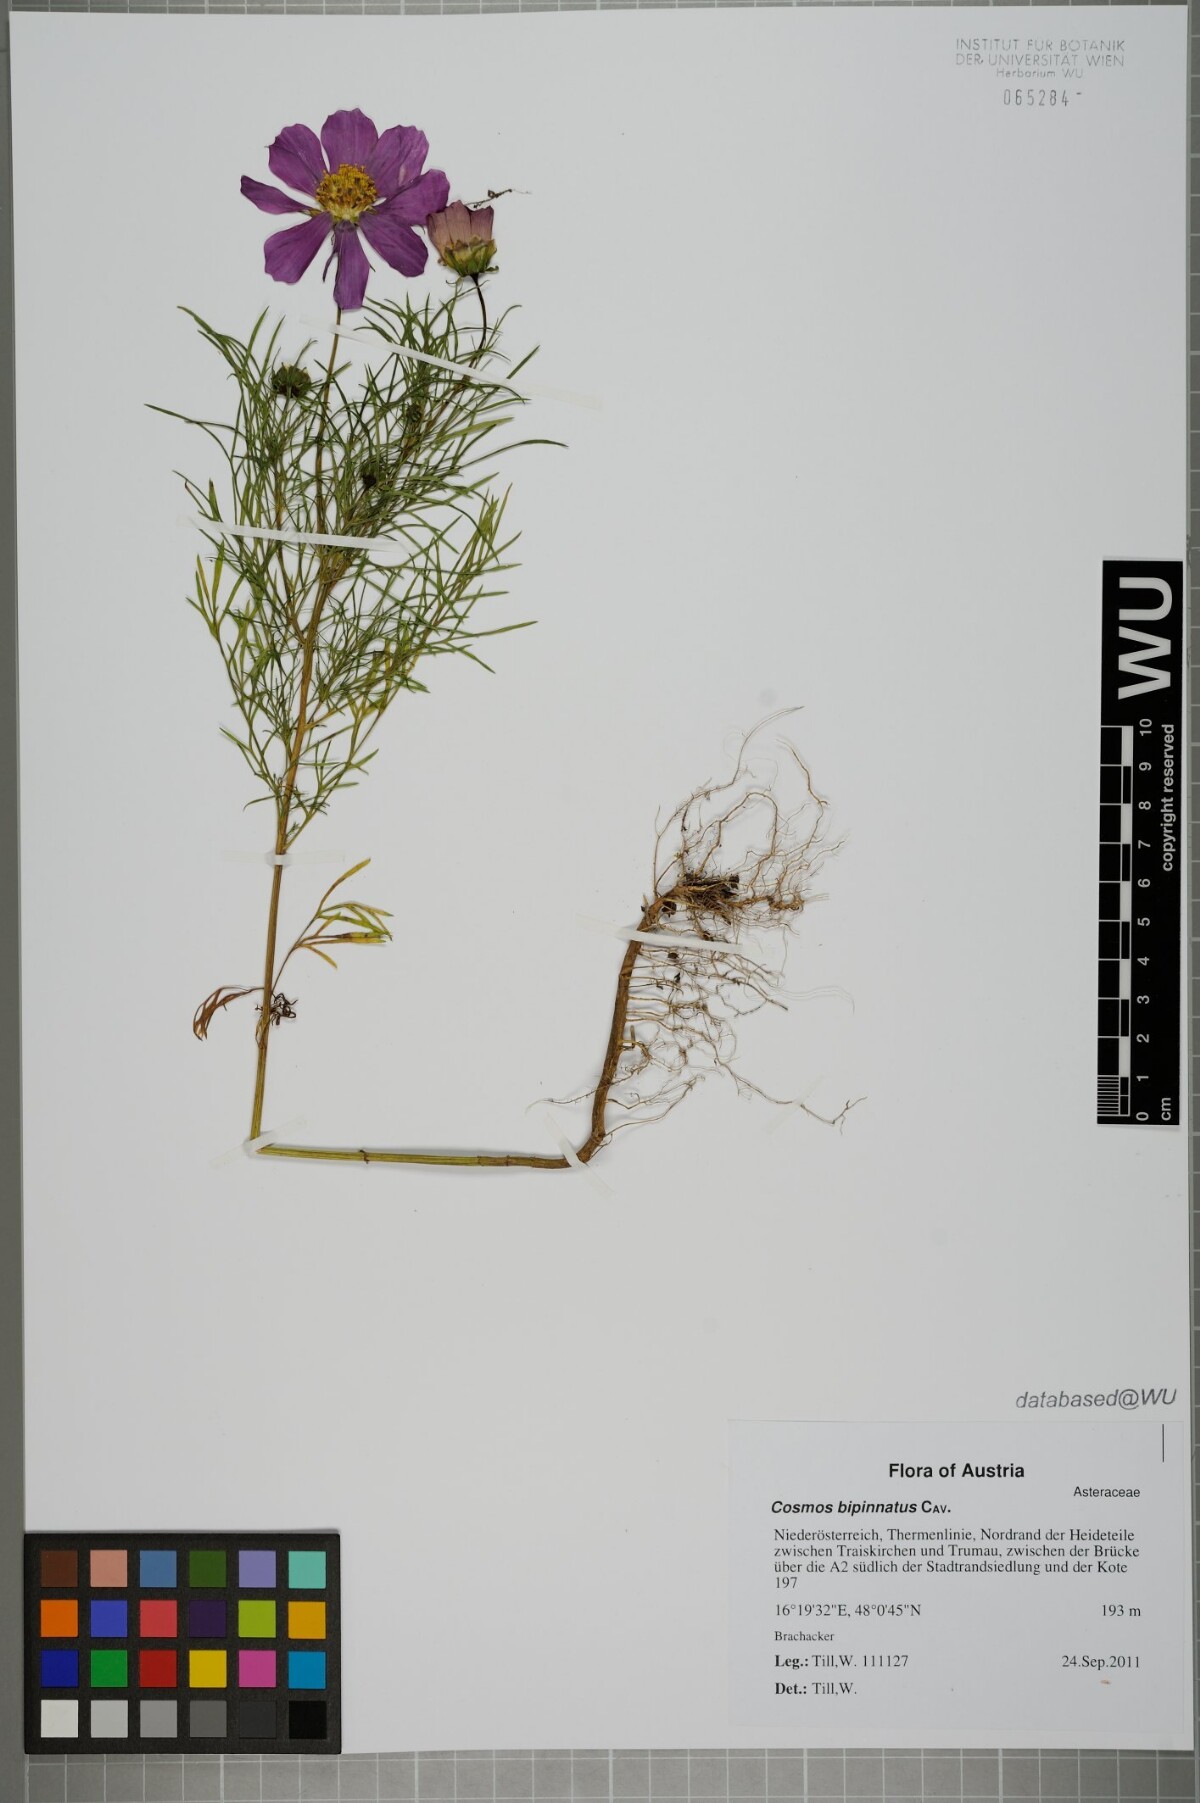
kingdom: Plantae
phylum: Tracheophyta
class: Magnoliopsida
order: Asterales
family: Asteraceae
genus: Cosmos
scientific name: Cosmos bipinnatus
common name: Garden cosmos
